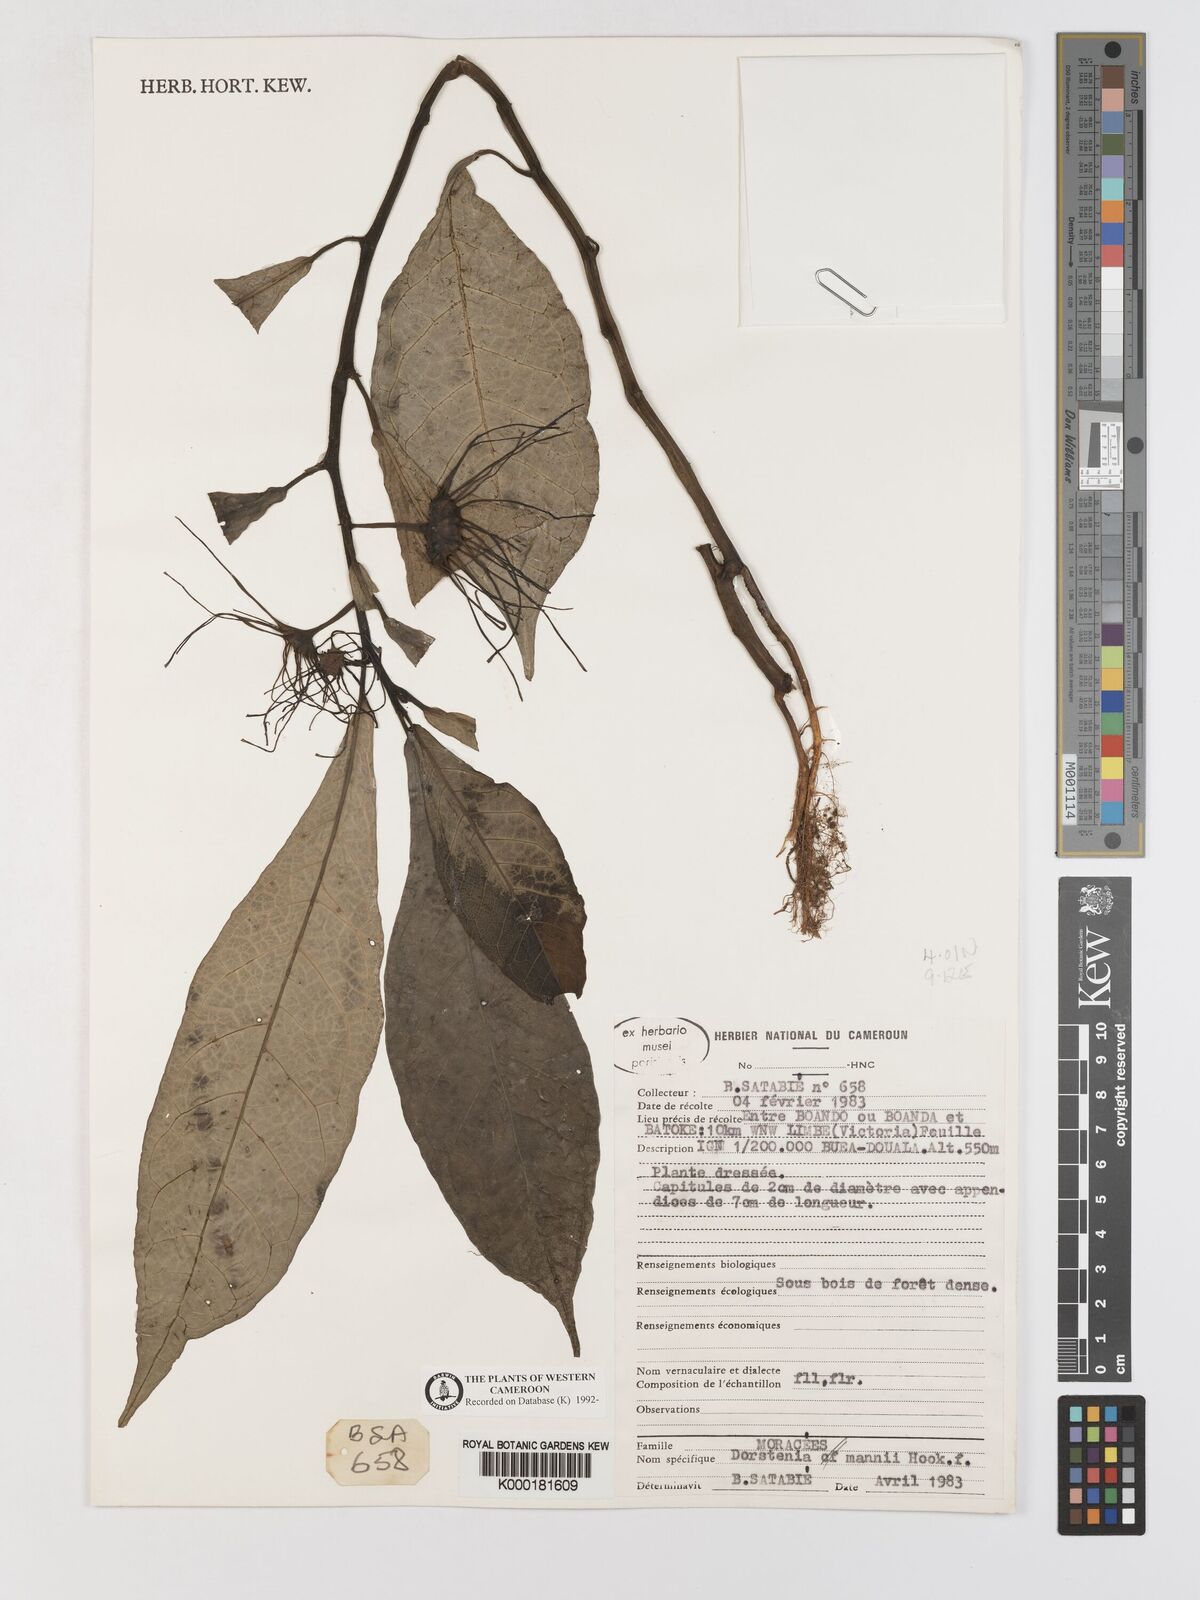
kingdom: Plantae
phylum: Tracheophyta
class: Magnoliopsida
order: Rosales
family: Moraceae
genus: Dorstenia
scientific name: Dorstenia mannii
